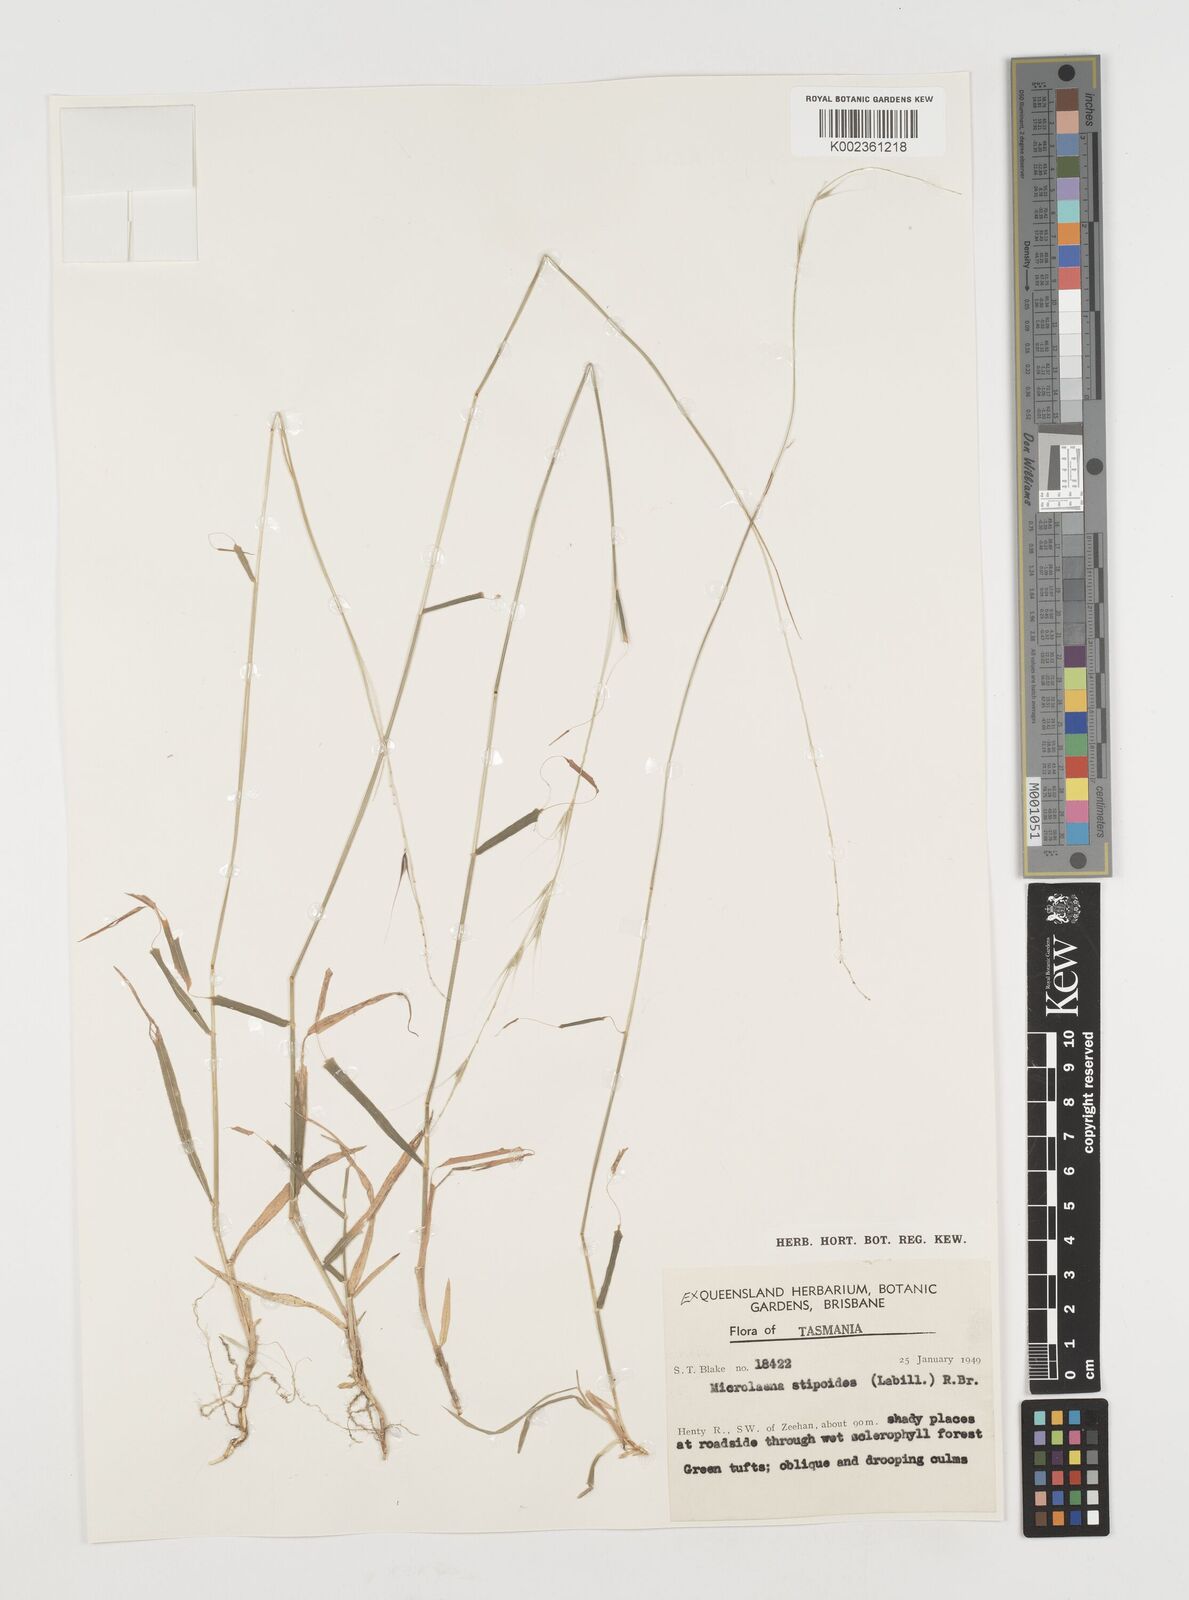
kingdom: Plantae
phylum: Tracheophyta
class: Liliopsida
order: Poales
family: Poaceae
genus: Microlaena
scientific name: Microlaena stipoides
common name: Meadow ricegrass
